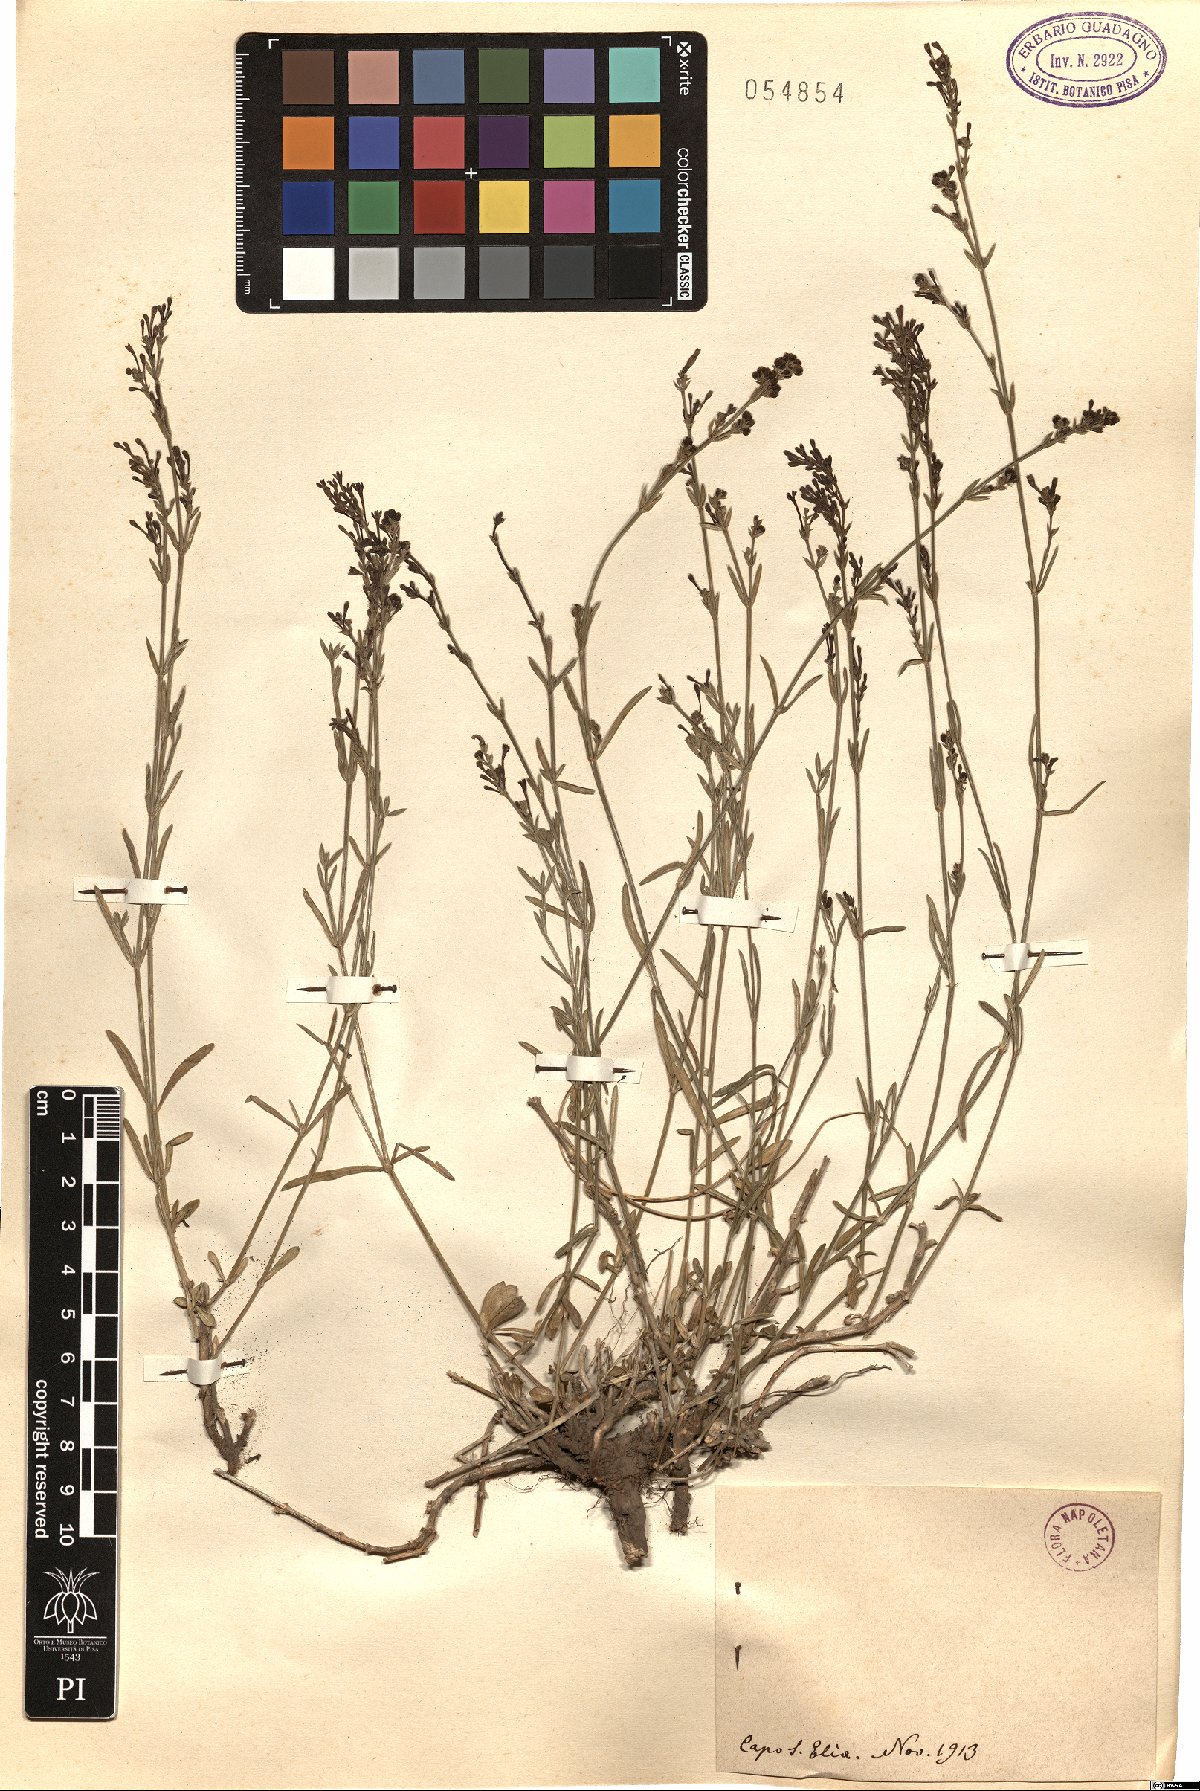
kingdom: Plantae
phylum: Tracheophyta
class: Magnoliopsida
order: Gentianales
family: Rubiaceae
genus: Asperula
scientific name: Asperula
